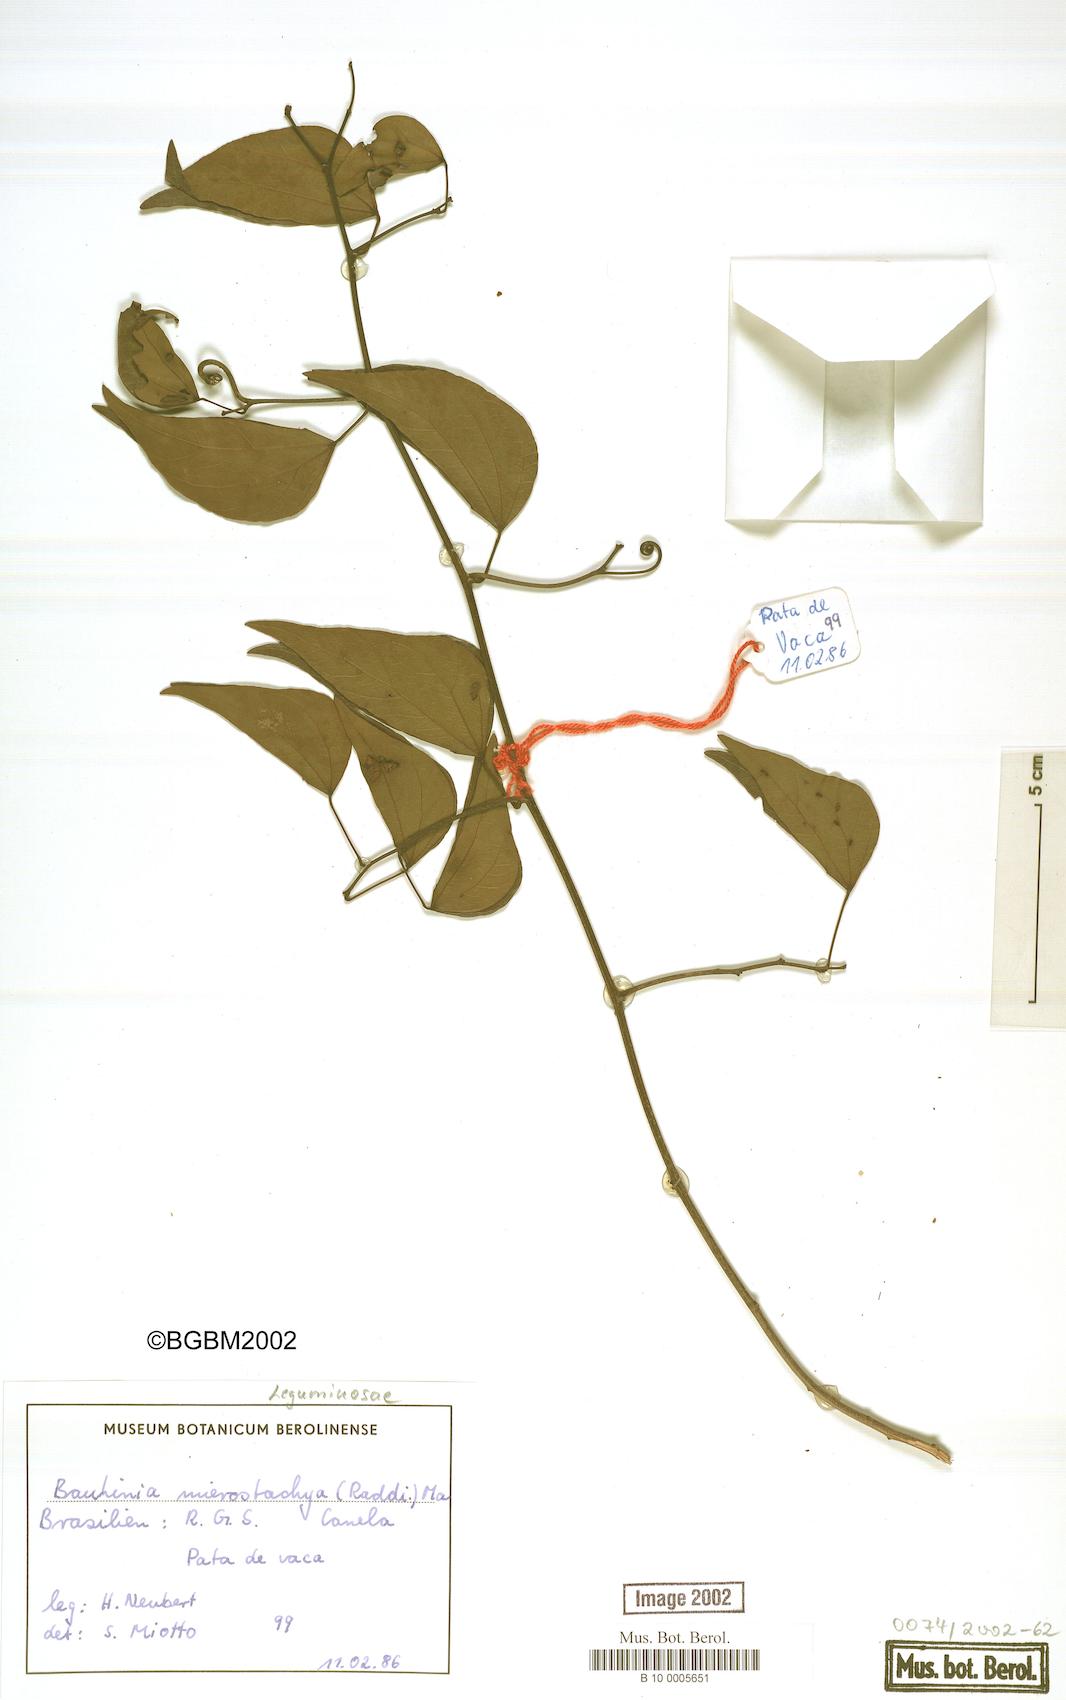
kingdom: Plantae
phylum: Tracheophyta
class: Magnoliopsida
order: Fabales
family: Fabaceae
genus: Schnella
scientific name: Schnella microstachya
